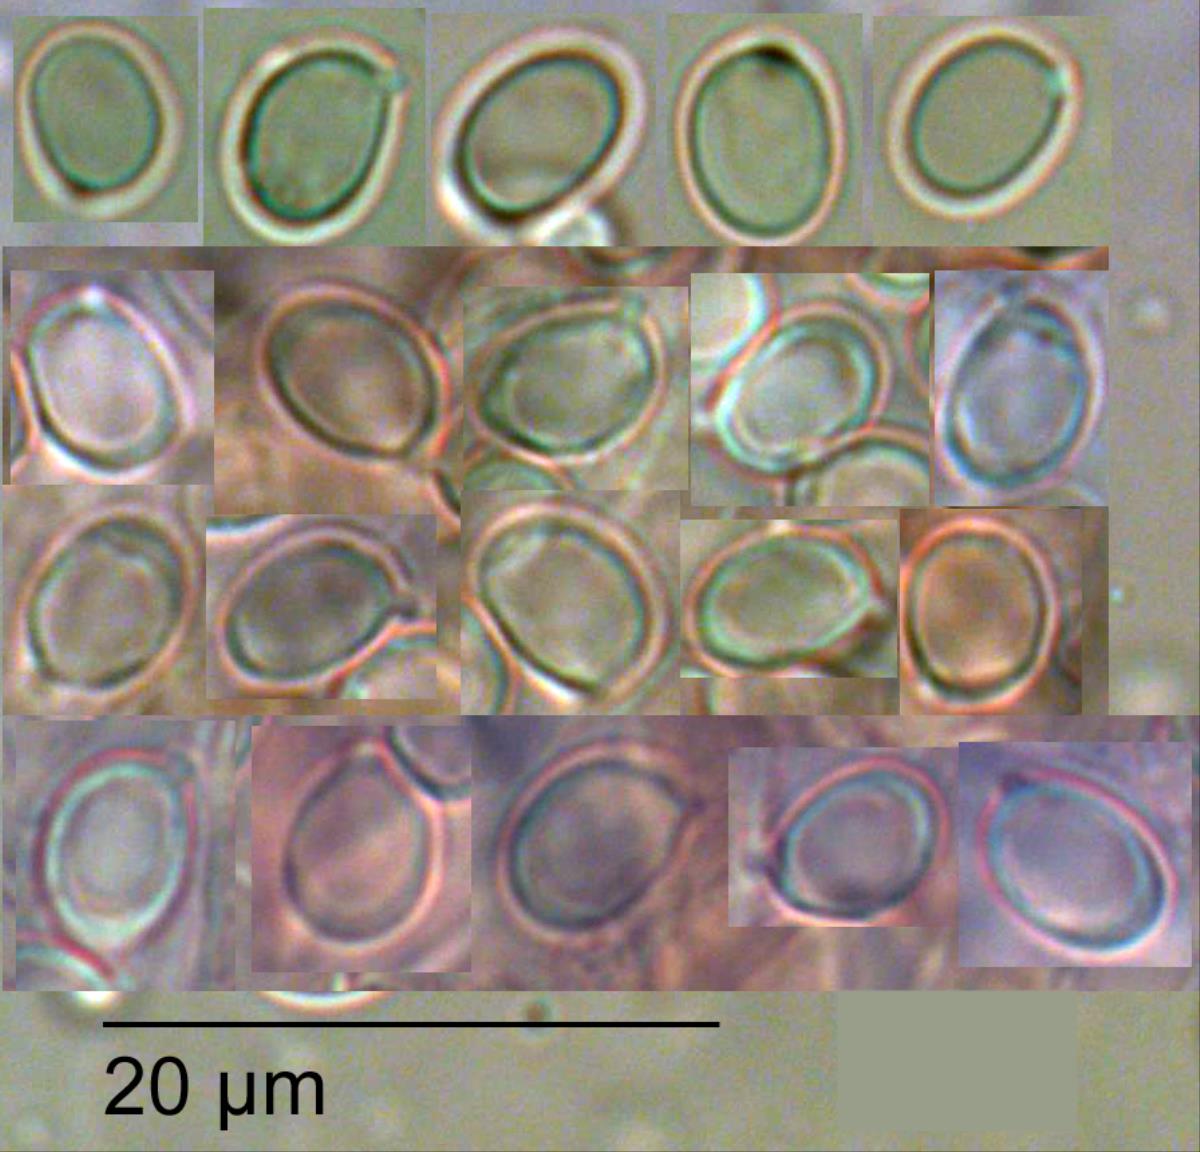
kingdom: Fungi
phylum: Basidiomycota
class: Agaricomycetes
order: Agaricales
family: Tricholomataceae
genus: Tricholoma
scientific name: Tricholoma
